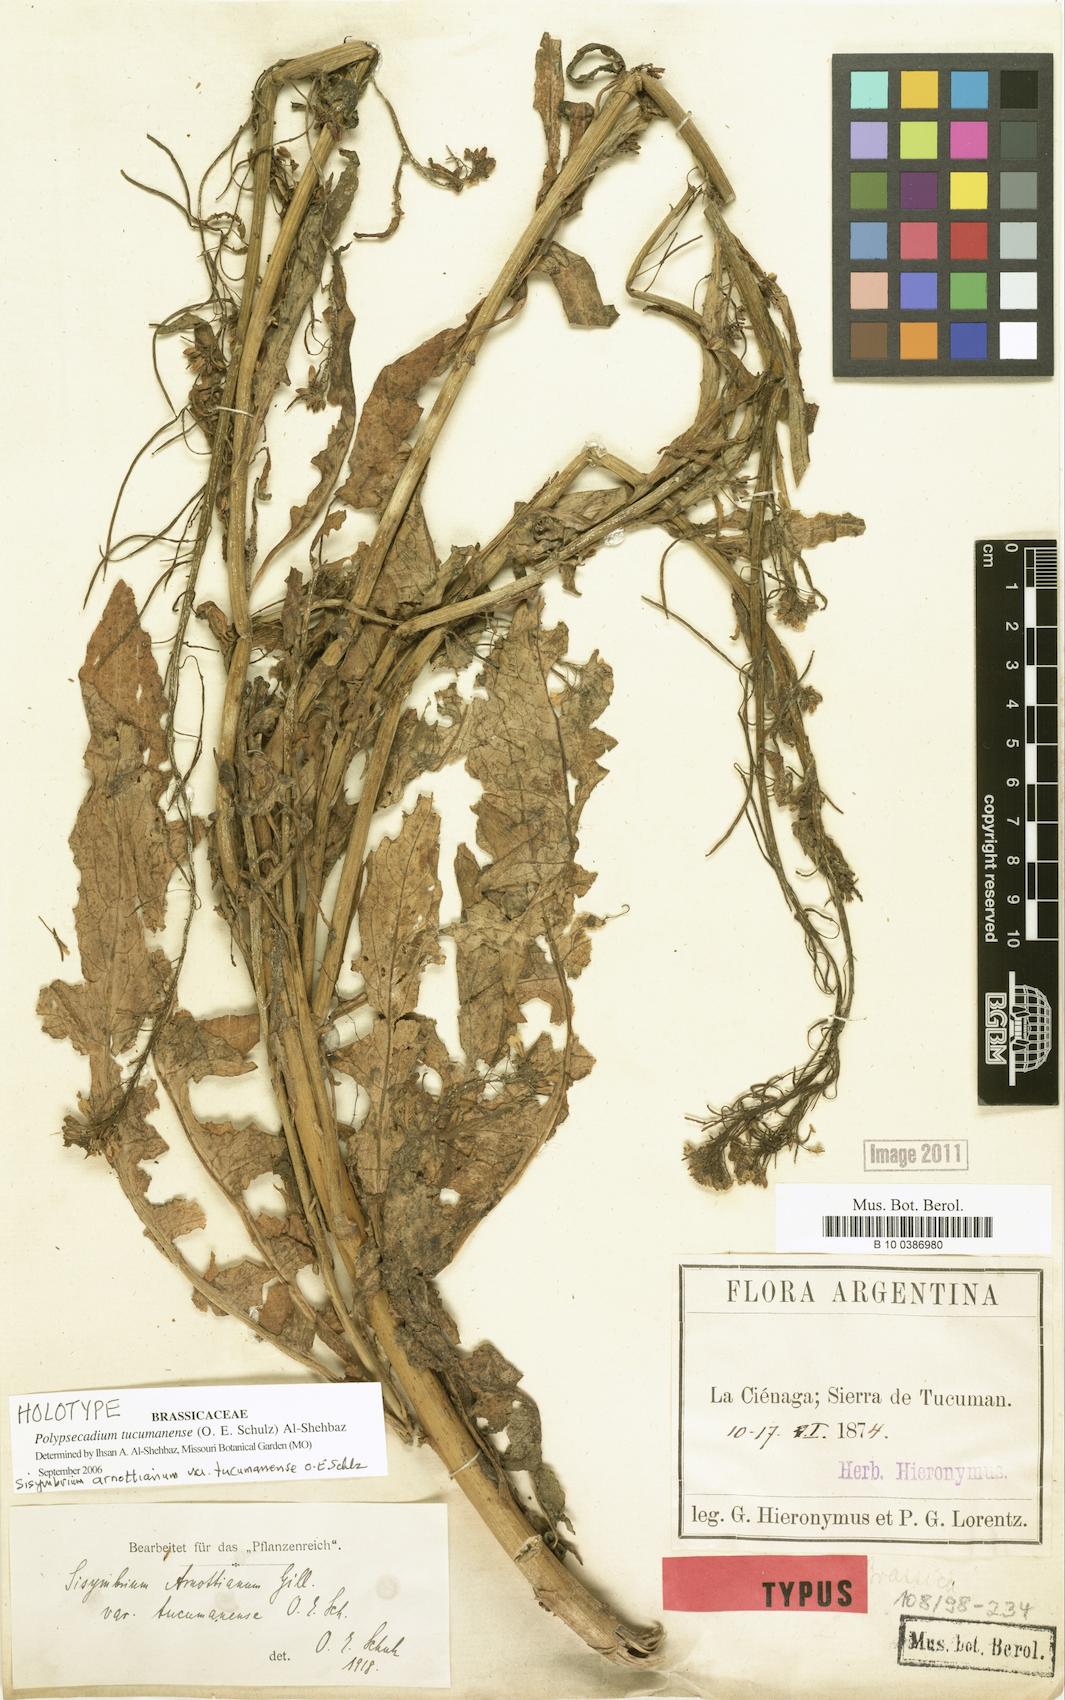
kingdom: Plantae
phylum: Tracheophyta
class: Magnoliopsida
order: Brassicales
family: Brassicaceae
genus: Polypsecadium
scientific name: Polypsecadium tucumanense
